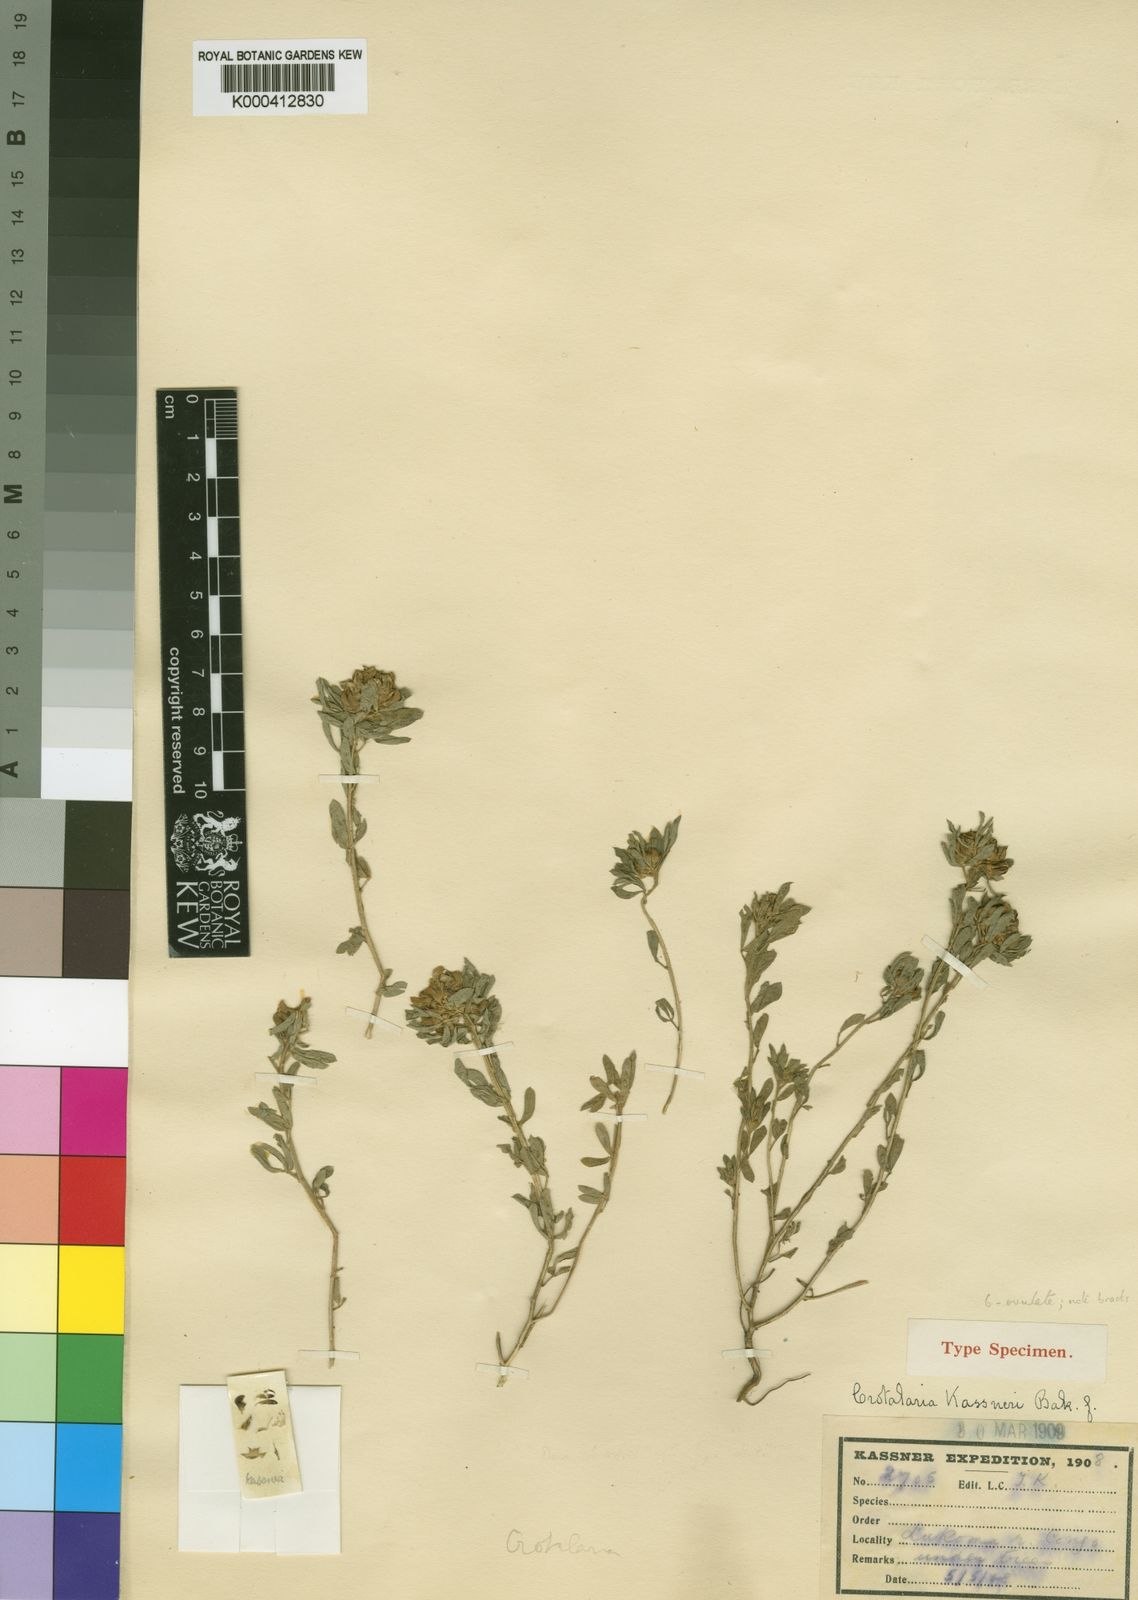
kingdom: Plantae
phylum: Tracheophyta
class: Magnoliopsida
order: Fabales
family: Fabaceae
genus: Crotalaria
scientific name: Crotalaria kassneri
